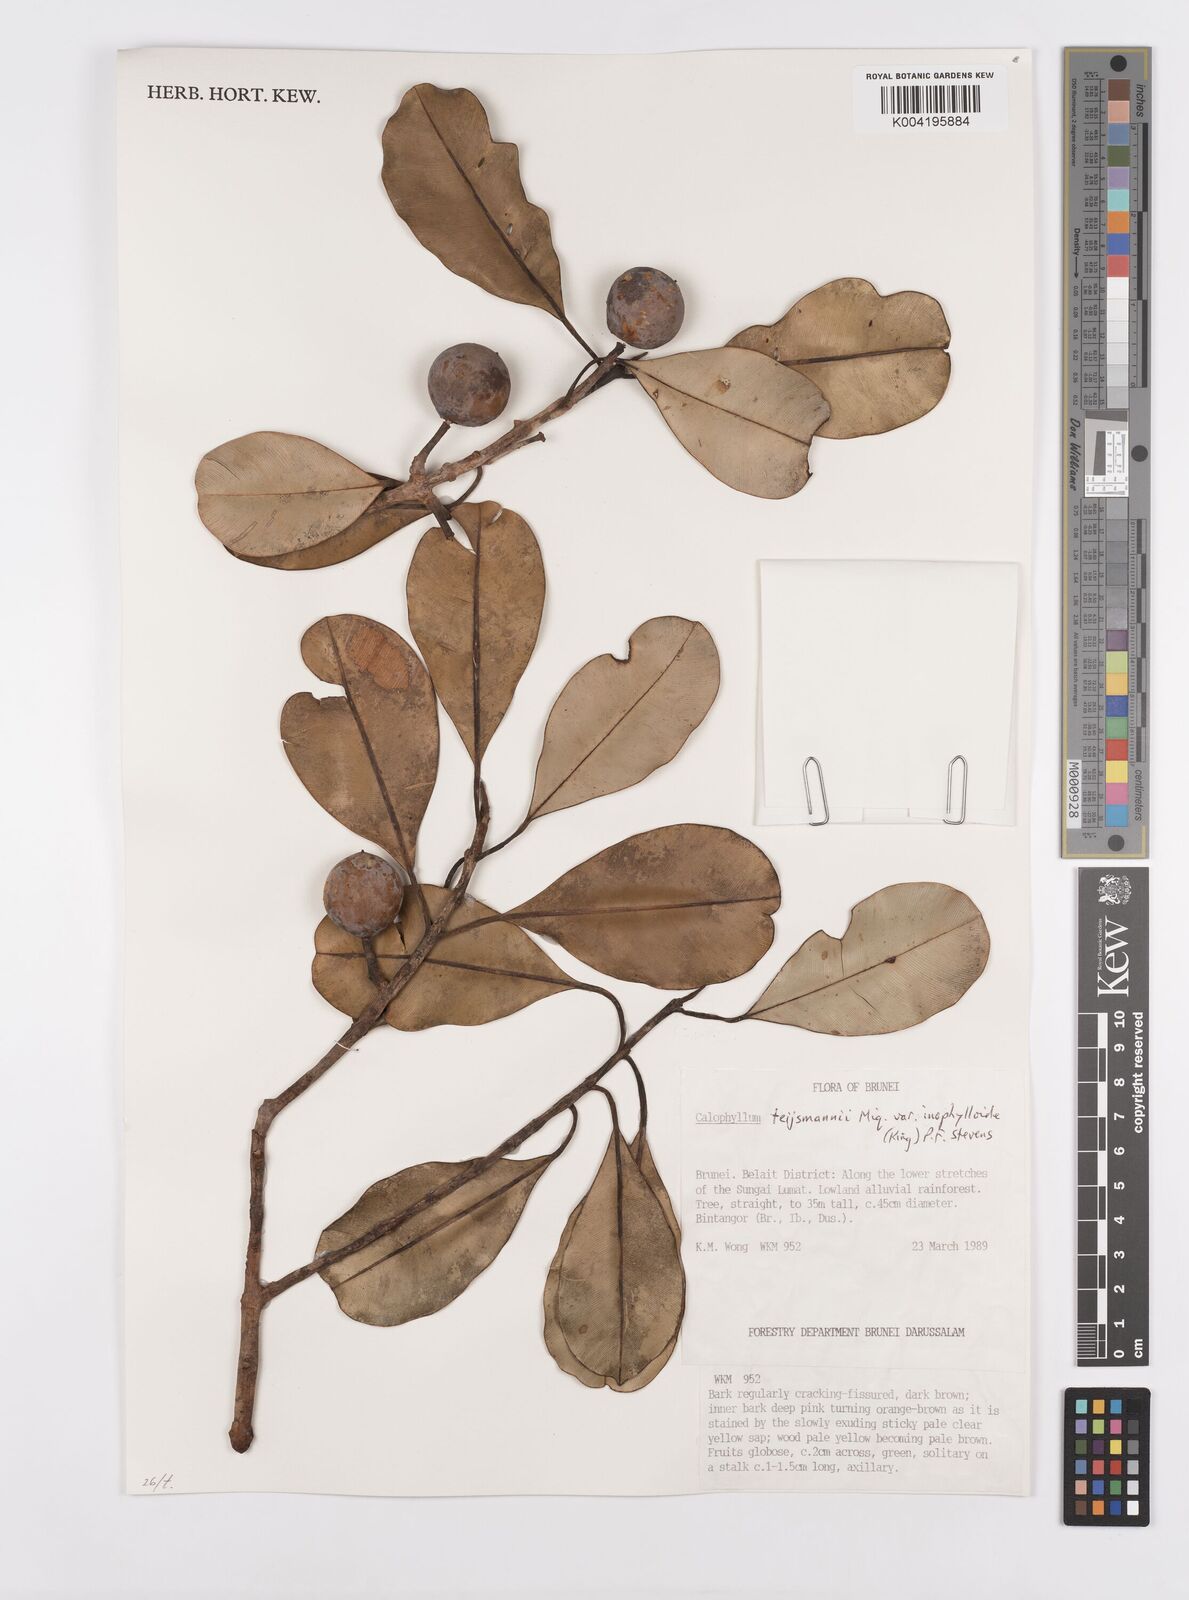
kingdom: Plantae
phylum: Tracheophyta
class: Magnoliopsida
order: Malpighiales
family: Calophyllaceae
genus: Calophyllum
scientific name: Calophyllum teysmannii
